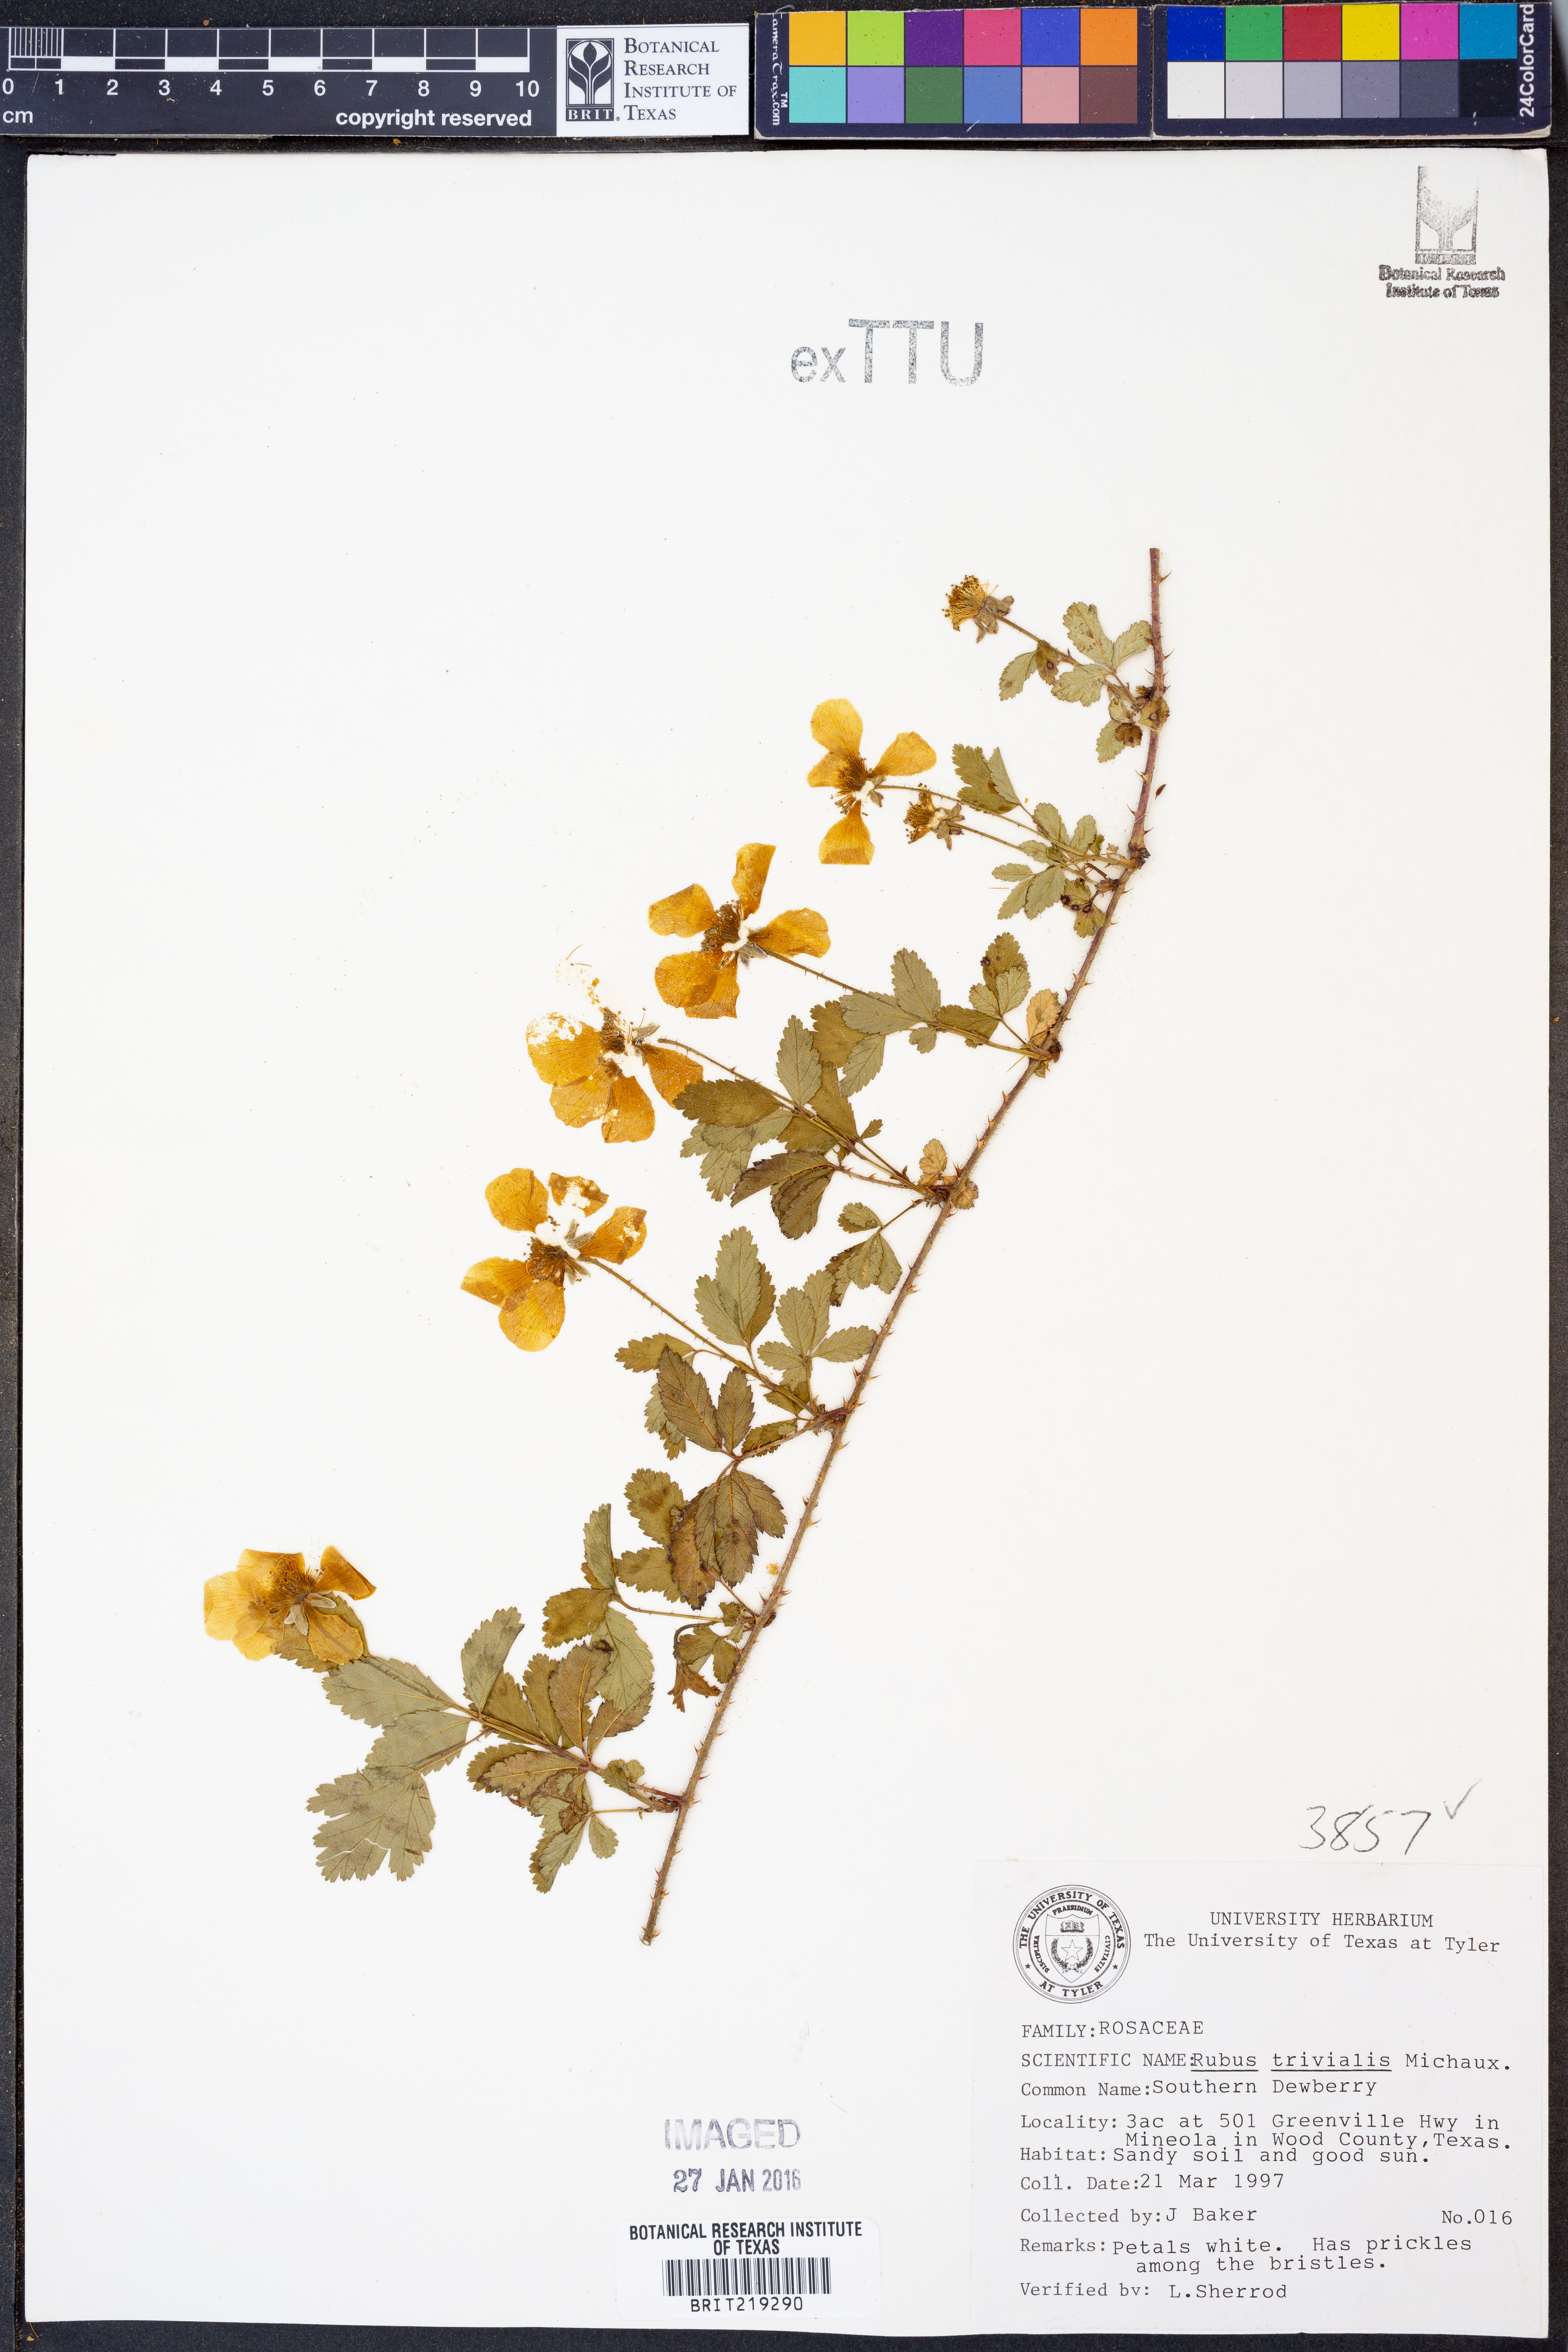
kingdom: Plantae
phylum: Tracheophyta
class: Magnoliopsida
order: Rosales
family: Rosaceae
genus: Rubus
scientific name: Rubus trivialis
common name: Southern dewberry
